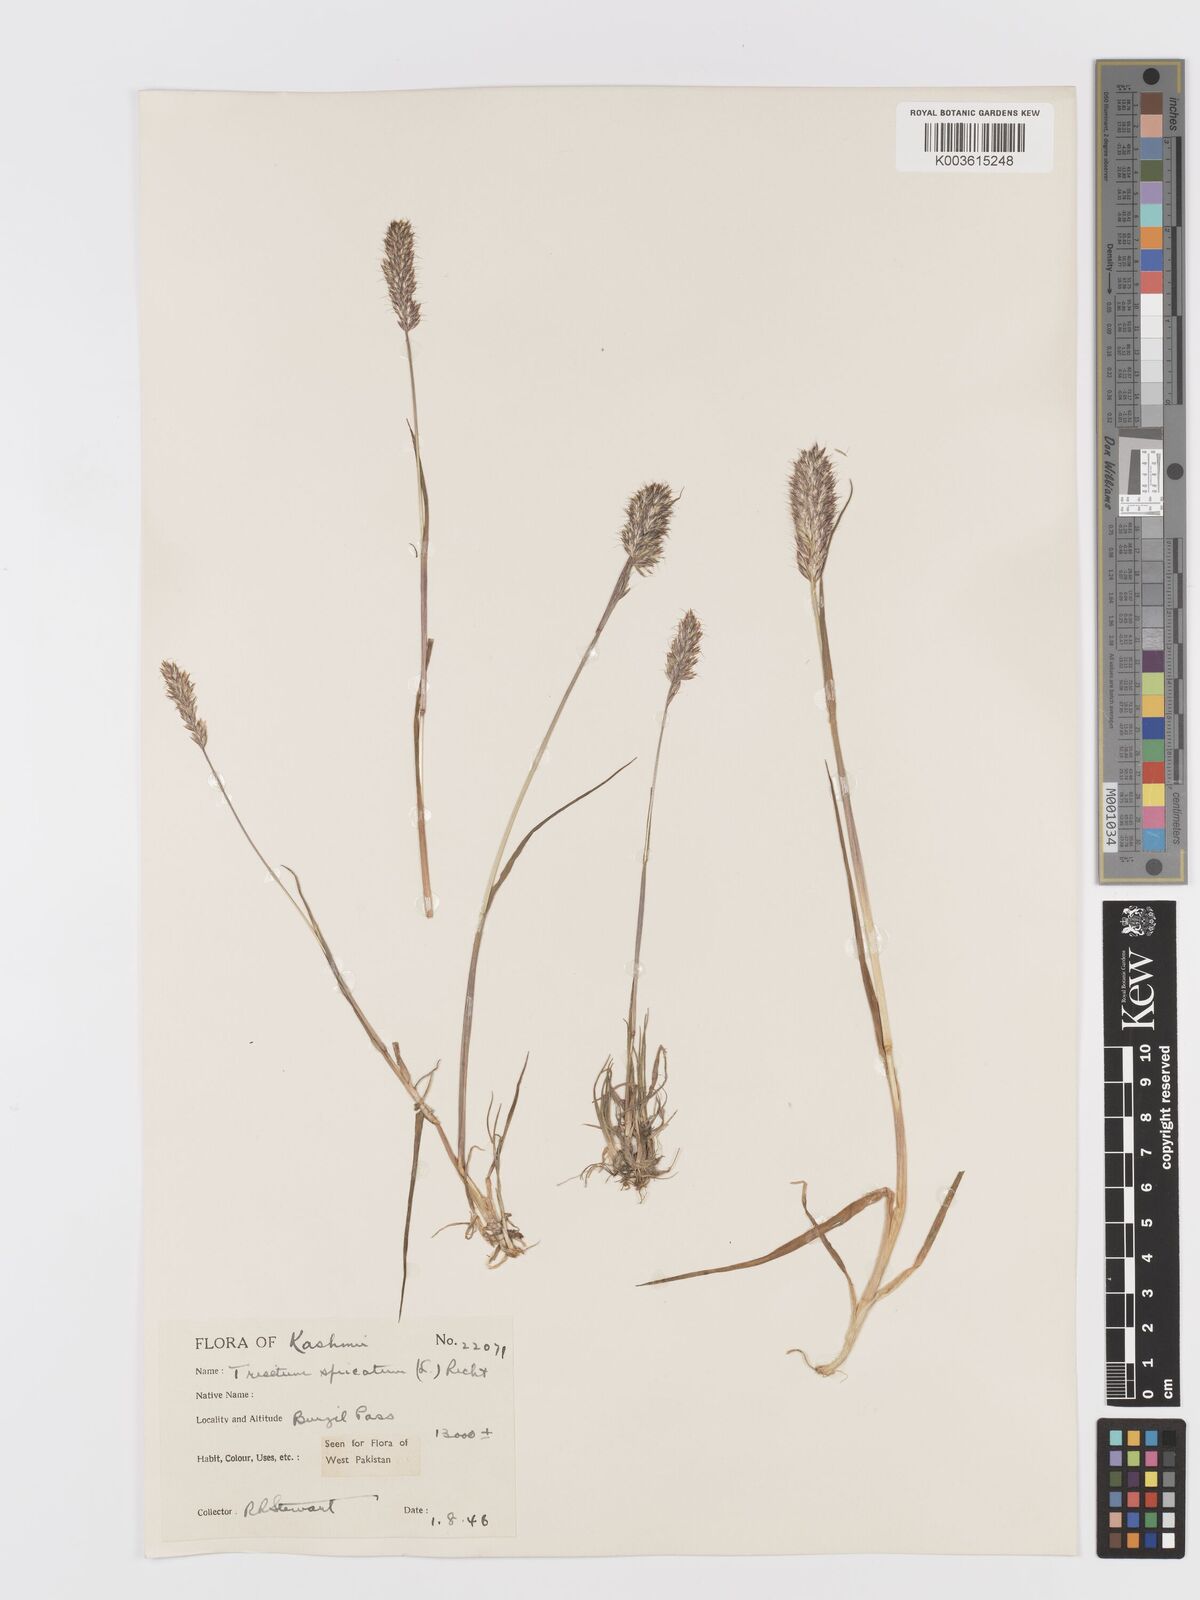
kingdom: Plantae
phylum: Tracheophyta
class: Liliopsida
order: Poales
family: Poaceae
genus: Koeleria
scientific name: Koeleria spicata
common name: Mountain trisetum
